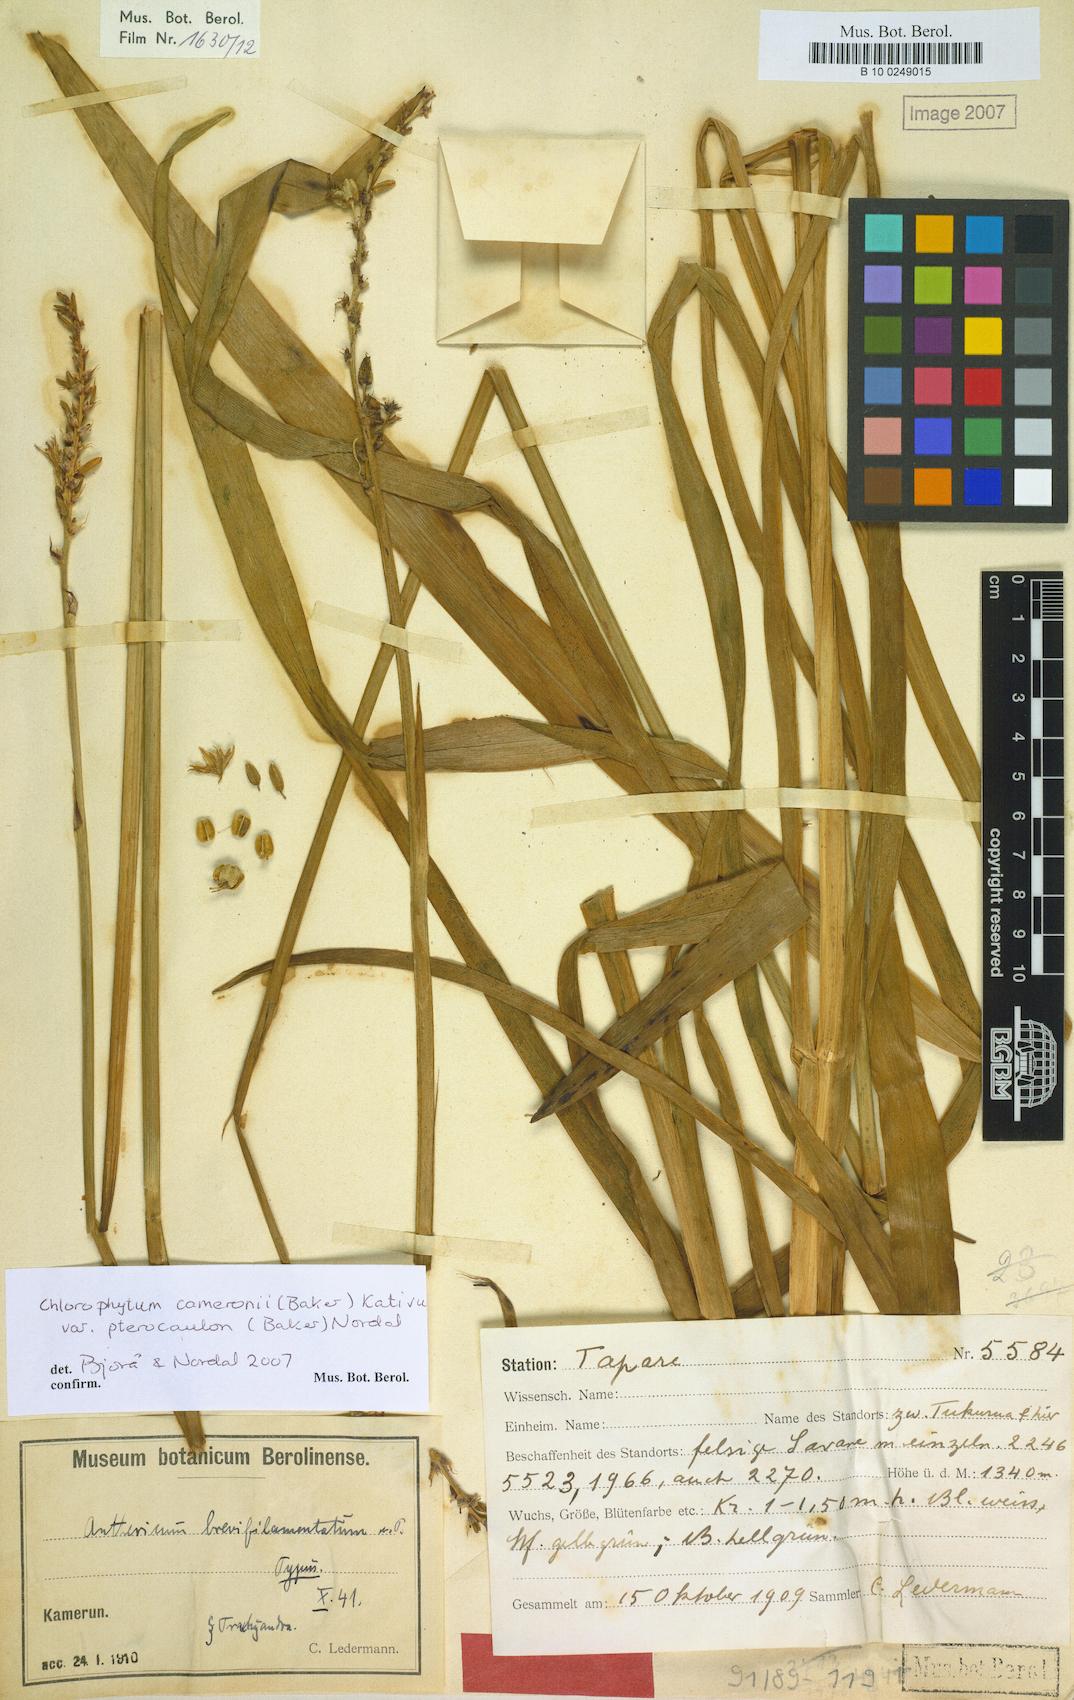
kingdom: Plantae
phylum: Tracheophyta
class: Liliopsida
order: Asparagales
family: Asparagaceae
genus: Chlorophytum
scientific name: Chlorophytum cameronii
